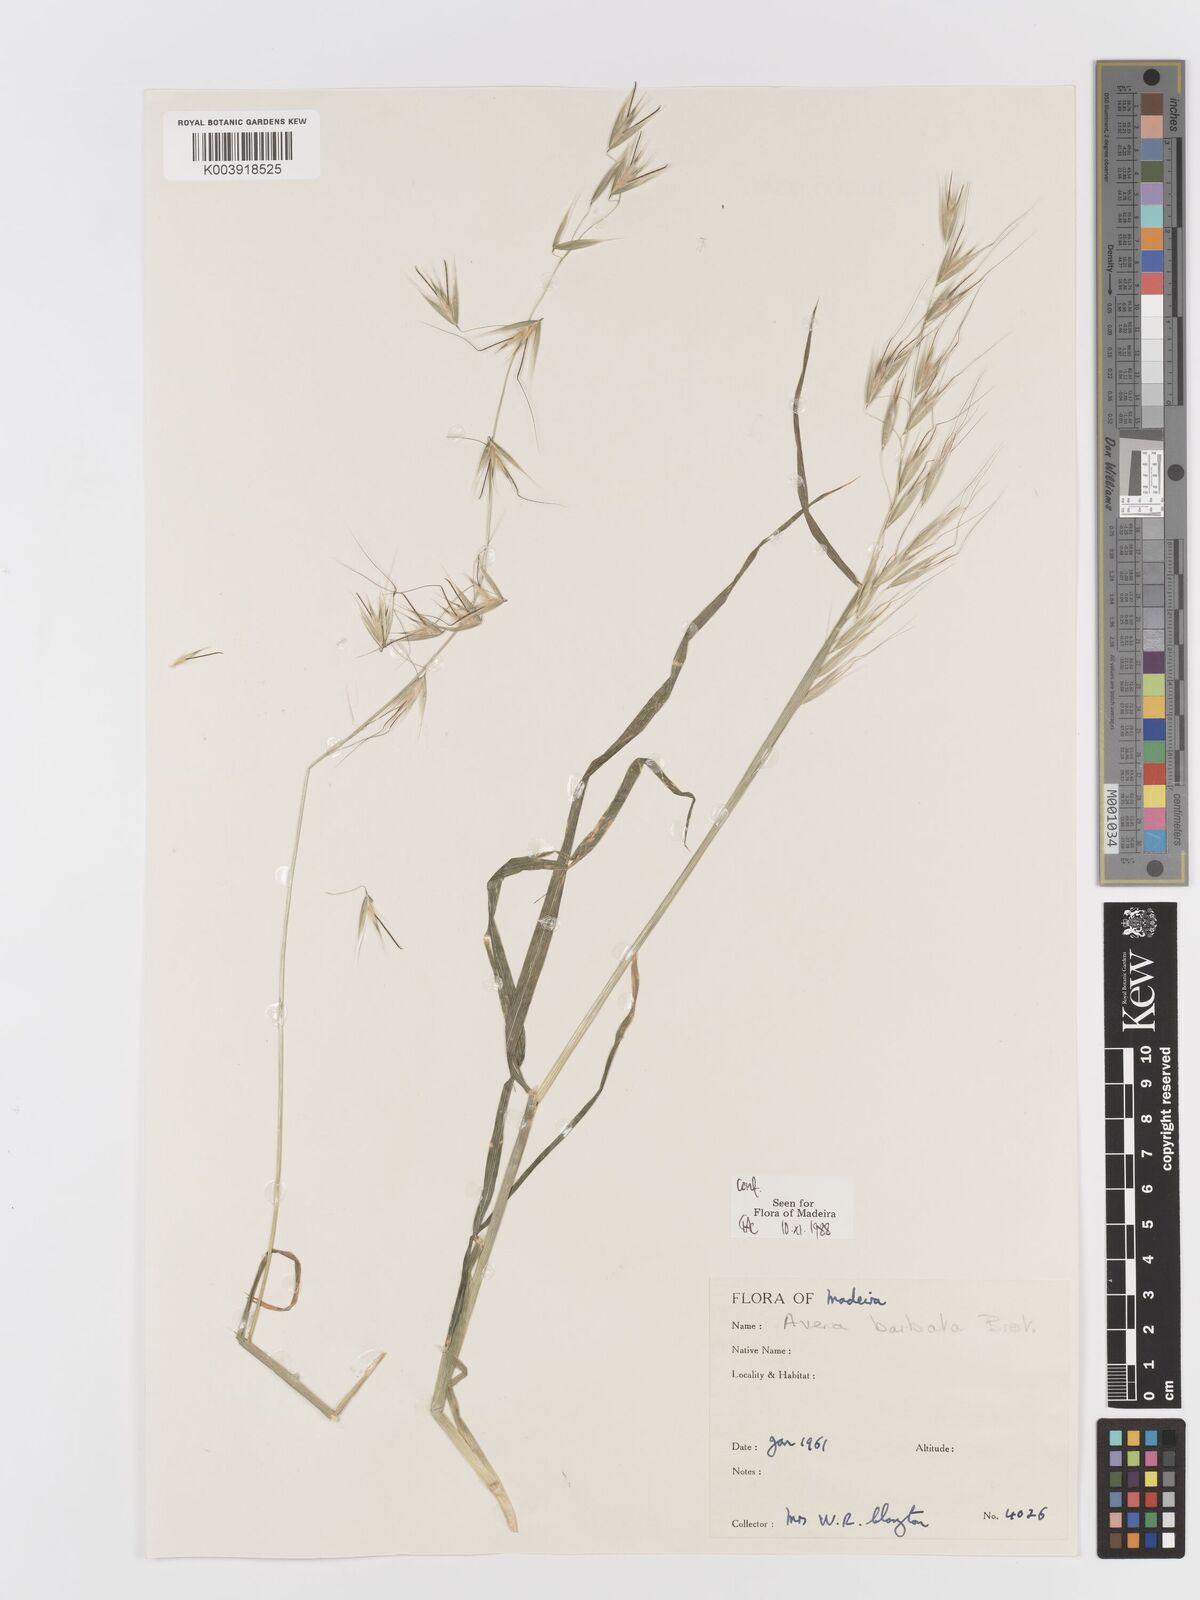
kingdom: Plantae
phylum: Tracheophyta
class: Liliopsida
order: Poales
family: Poaceae
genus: Avena
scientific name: Avena
